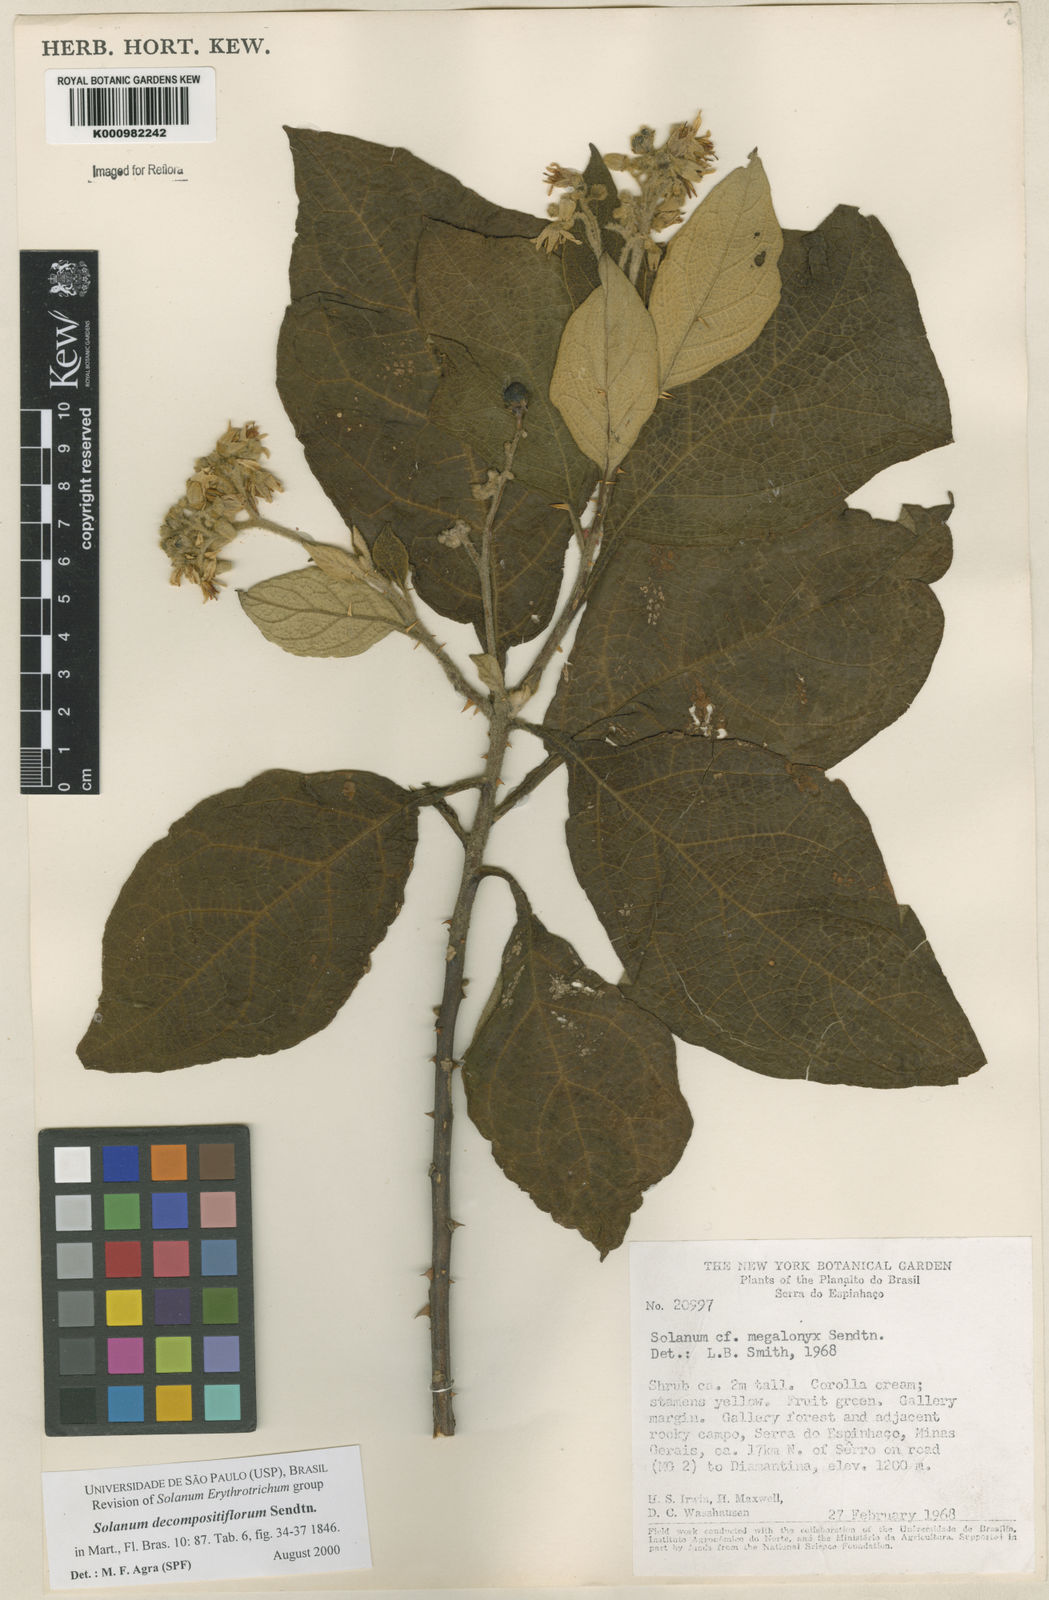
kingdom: Plantae
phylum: Tracheophyta
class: Magnoliopsida
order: Solanales
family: Solanaceae
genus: Solanum
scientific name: Solanum decompositiflorum
